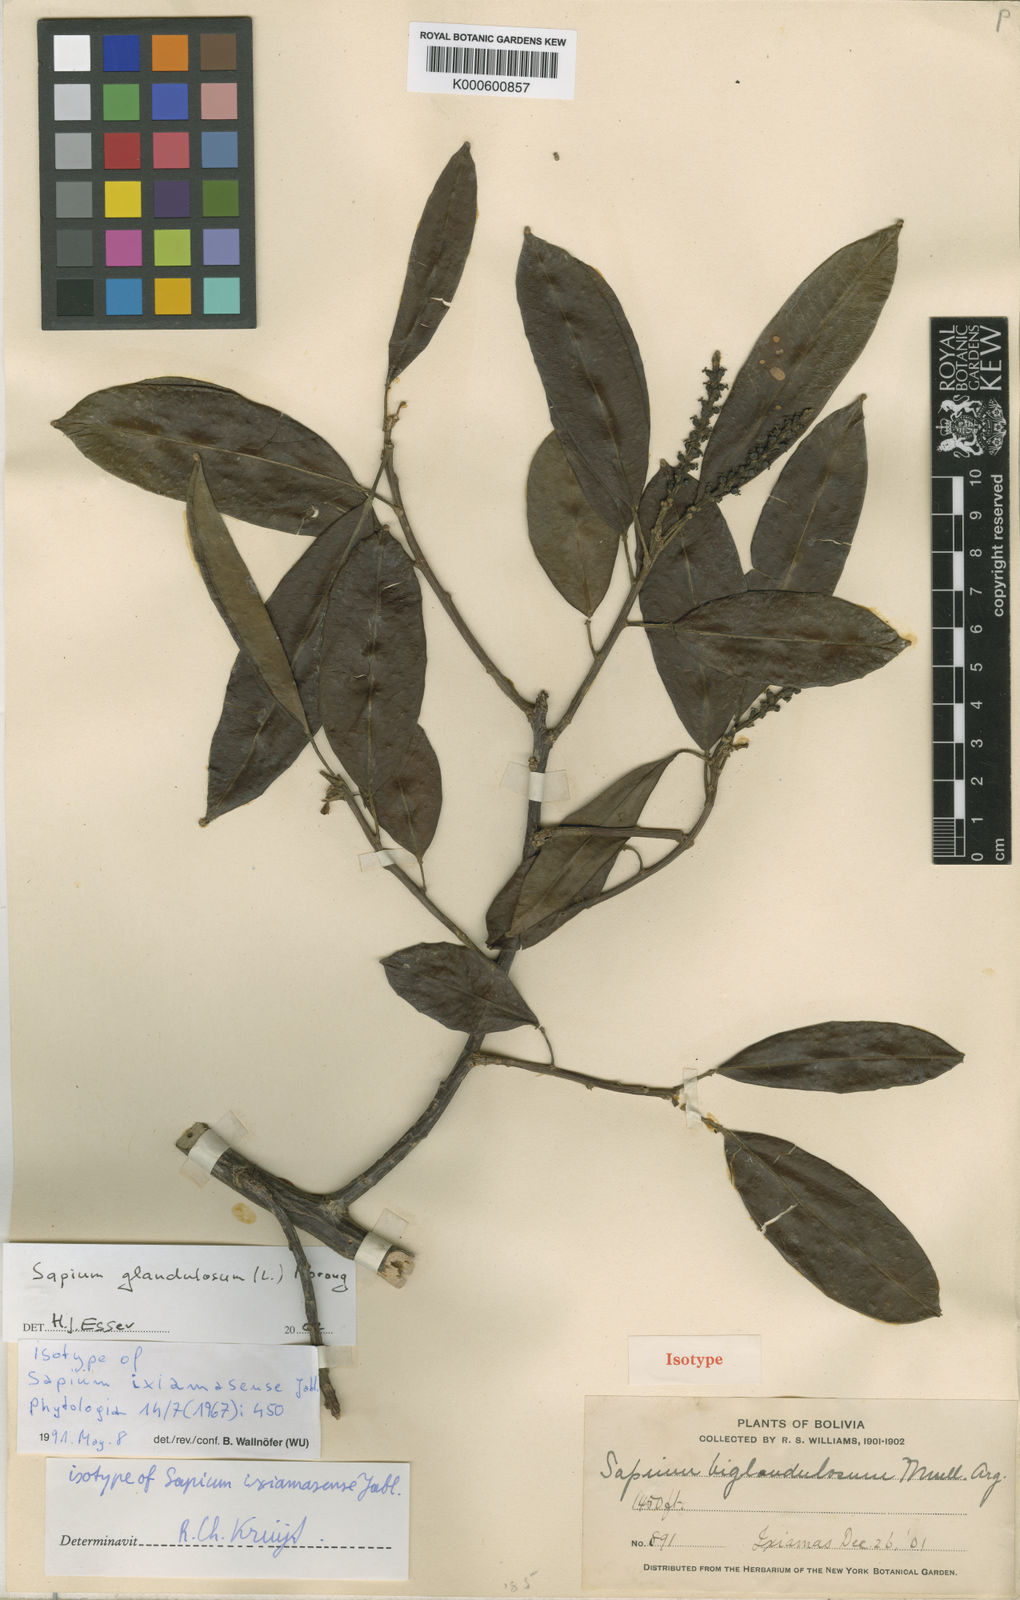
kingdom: Plantae
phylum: Tracheophyta
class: Magnoliopsida
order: Malpighiales
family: Euphorbiaceae
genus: Sapium
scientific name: Sapium glandulosum
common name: Milktree
